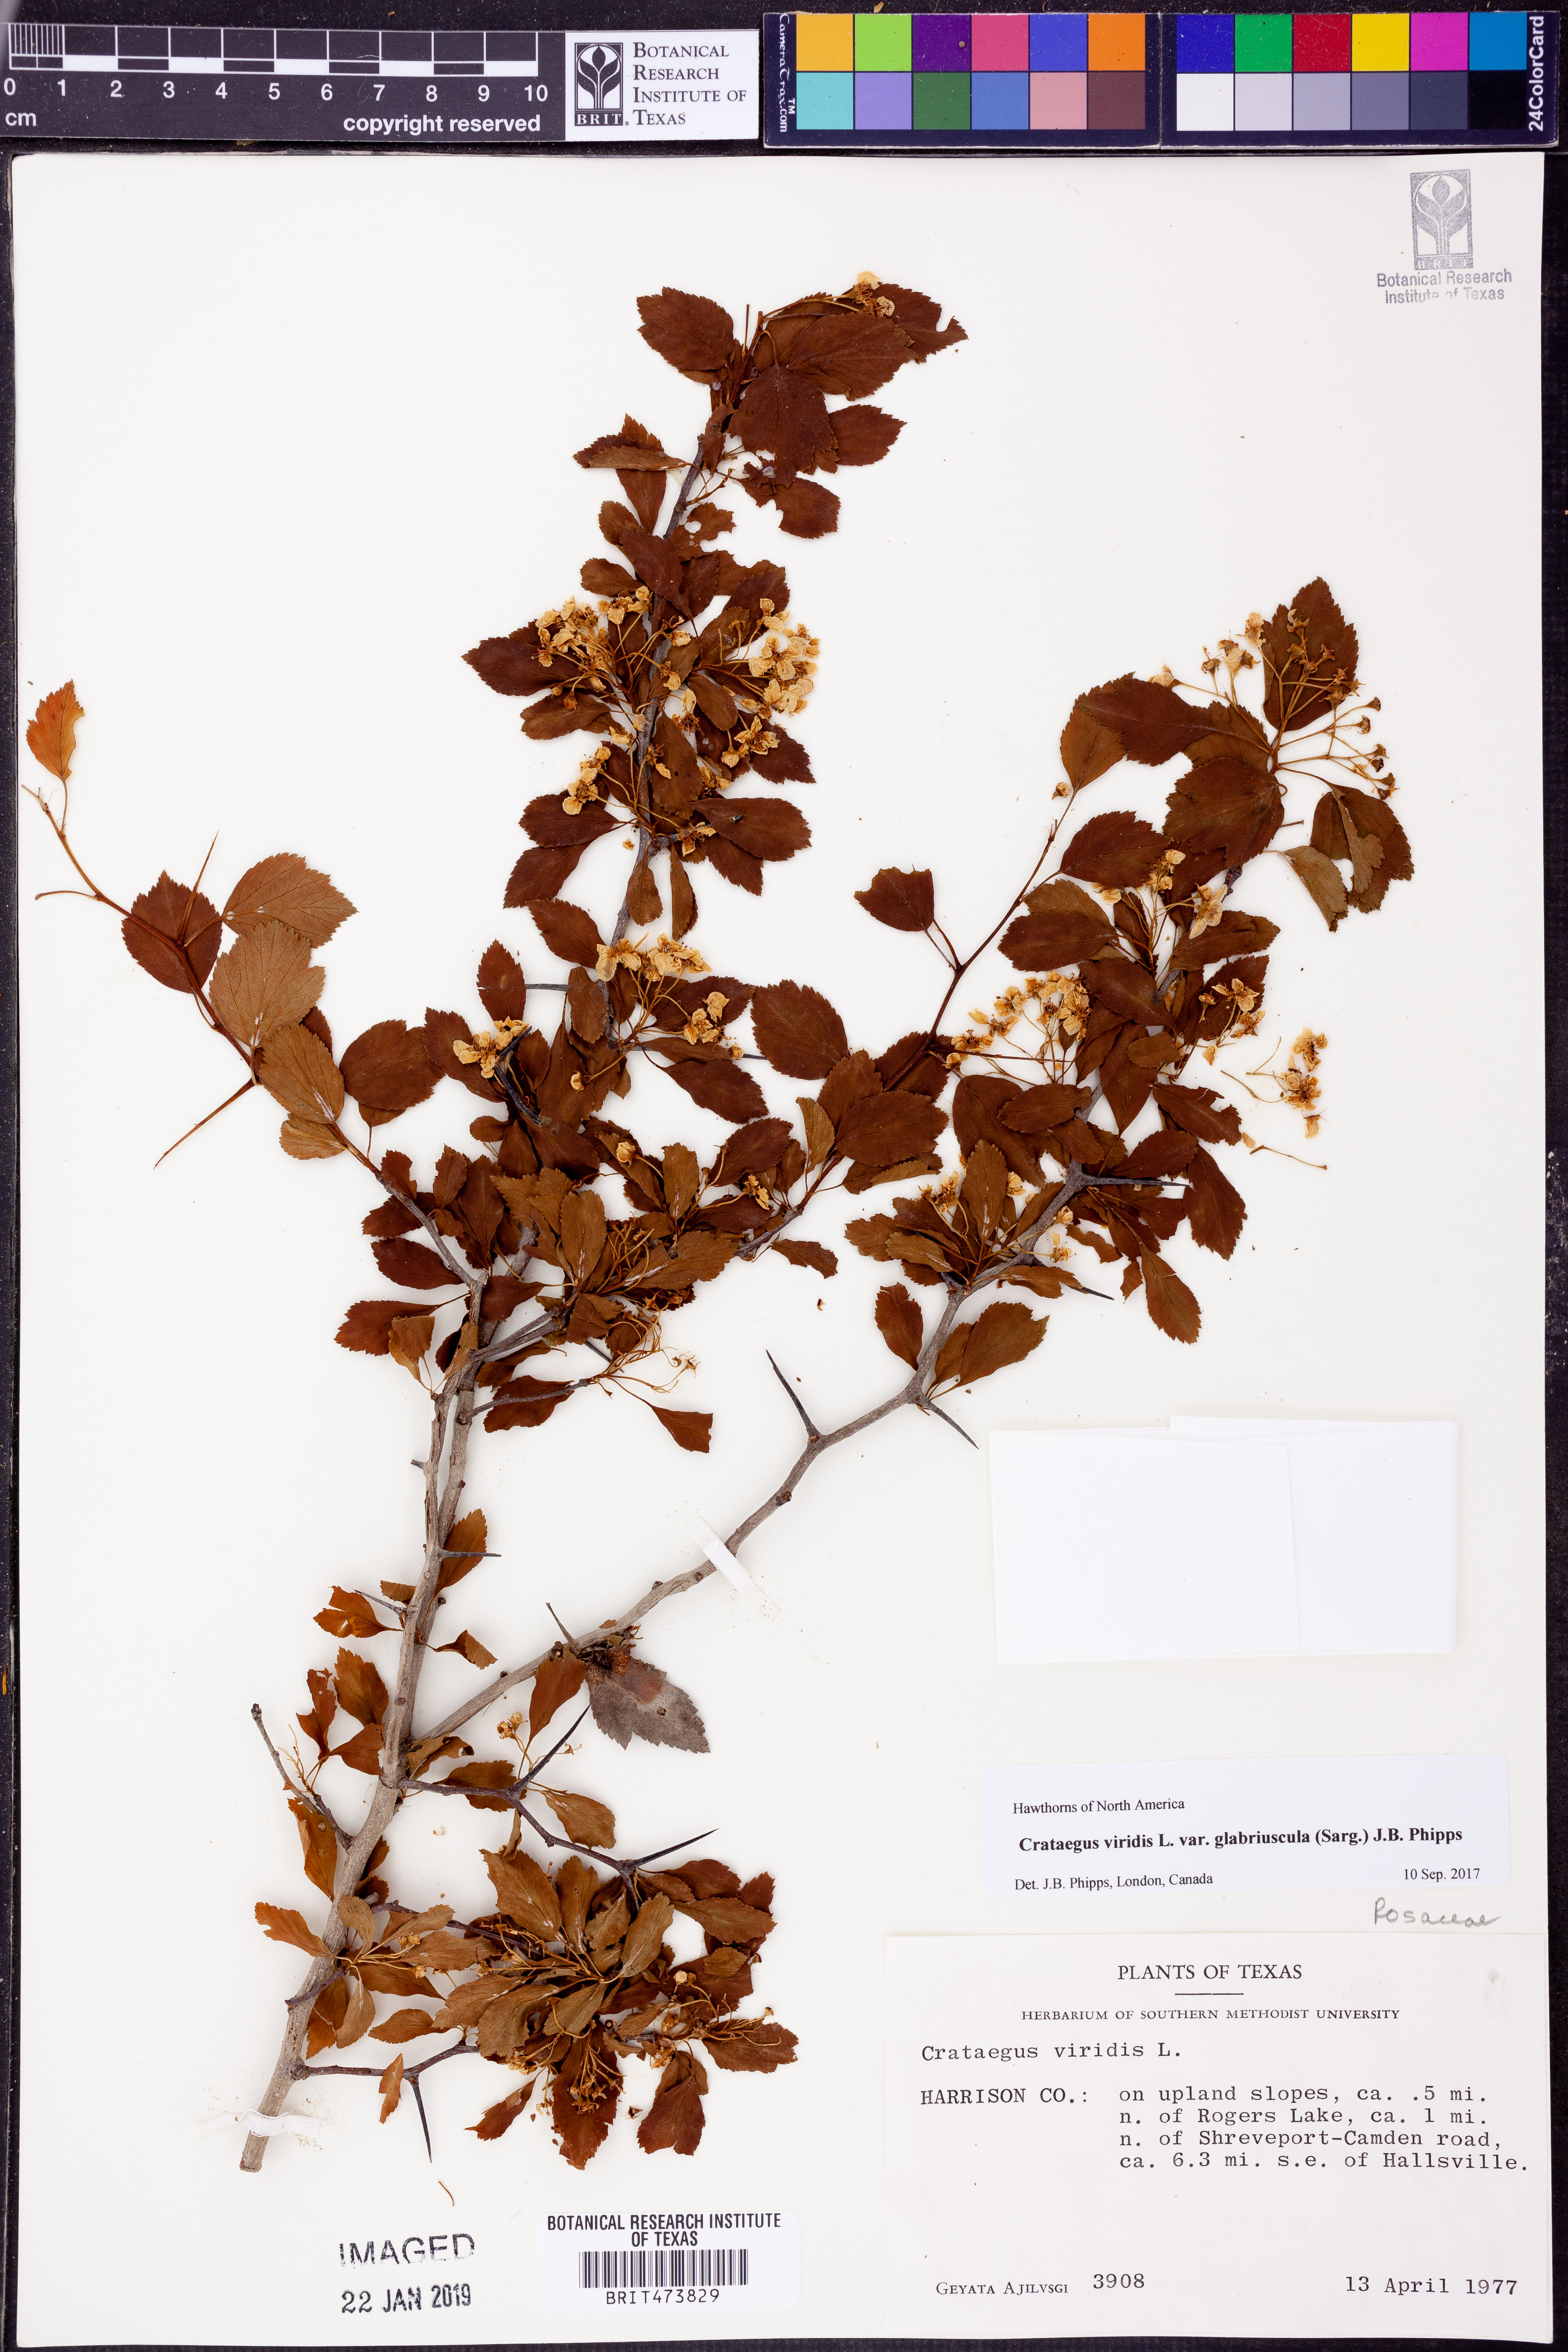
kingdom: Plantae
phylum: Tracheophyta
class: Magnoliopsida
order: Rosales
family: Rosaceae
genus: Crataegus
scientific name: Crataegus viridis
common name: Southernthorn
